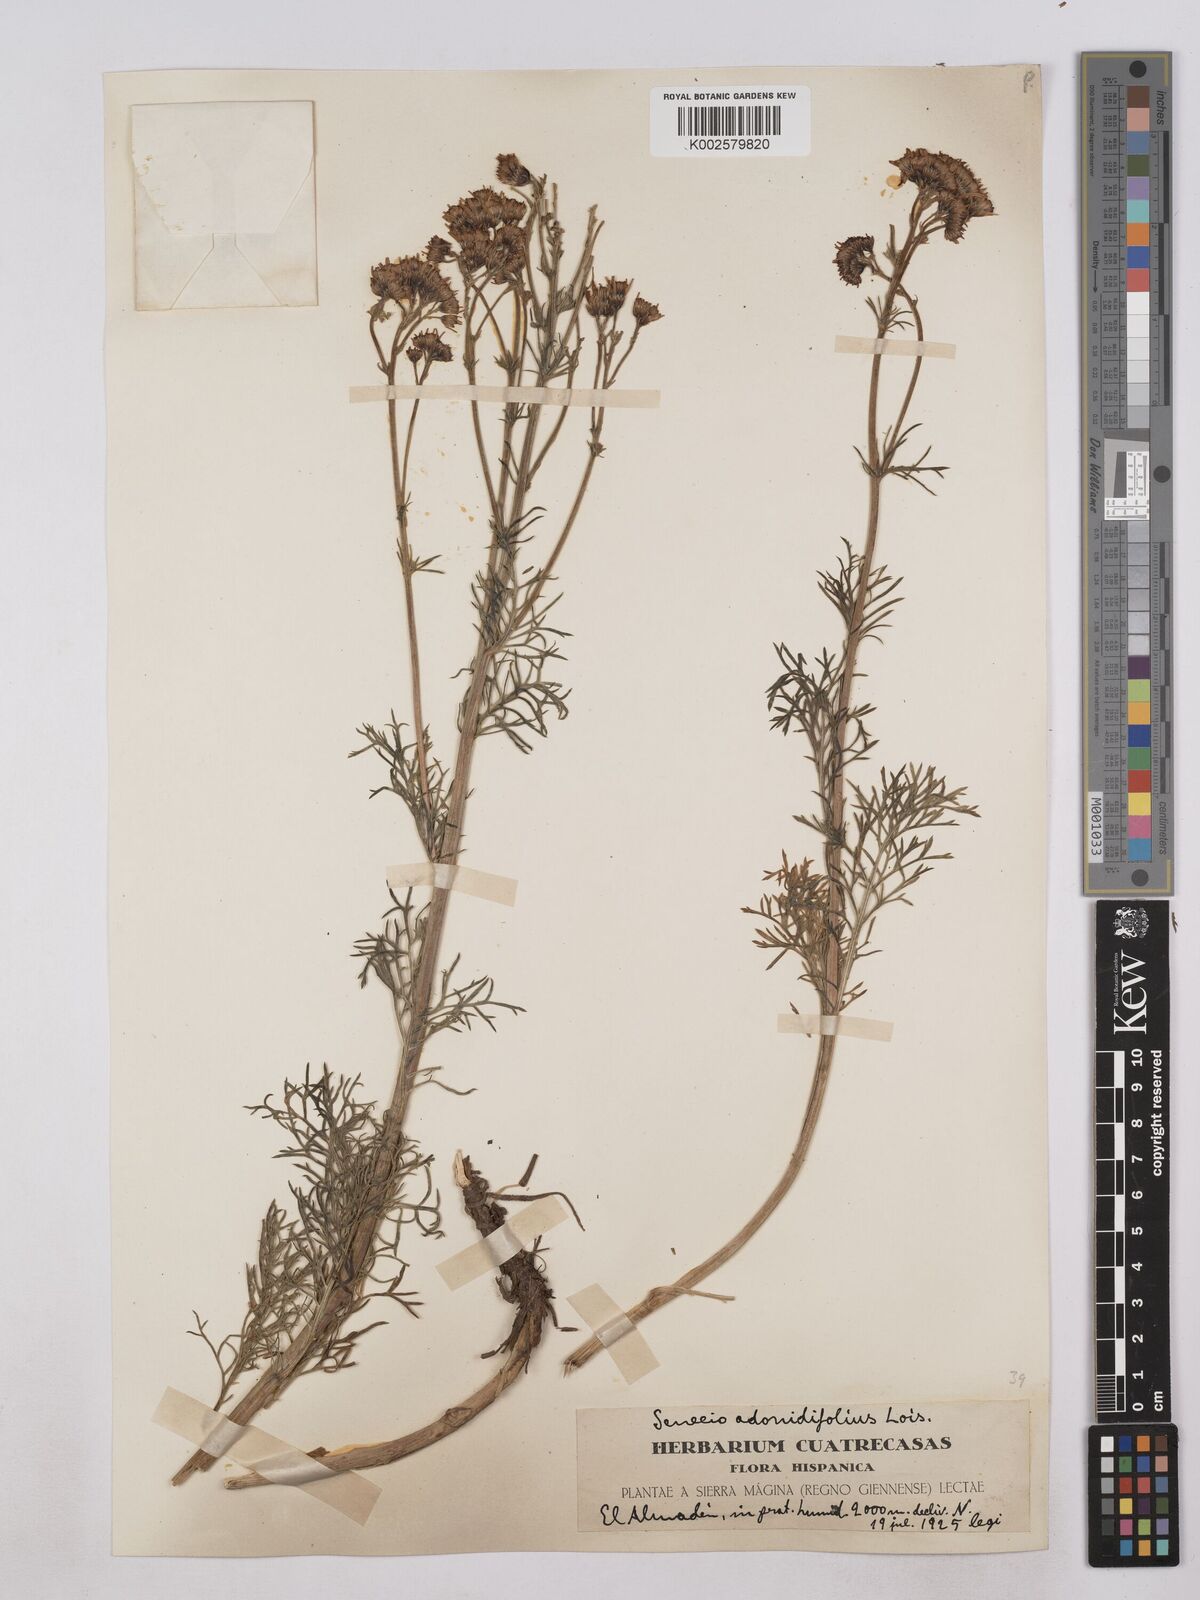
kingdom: Plantae
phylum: Tracheophyta
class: Magnoliopsida
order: Asterales
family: Asteraceae
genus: Jacobaea
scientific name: Jacobaea adonidifolia
